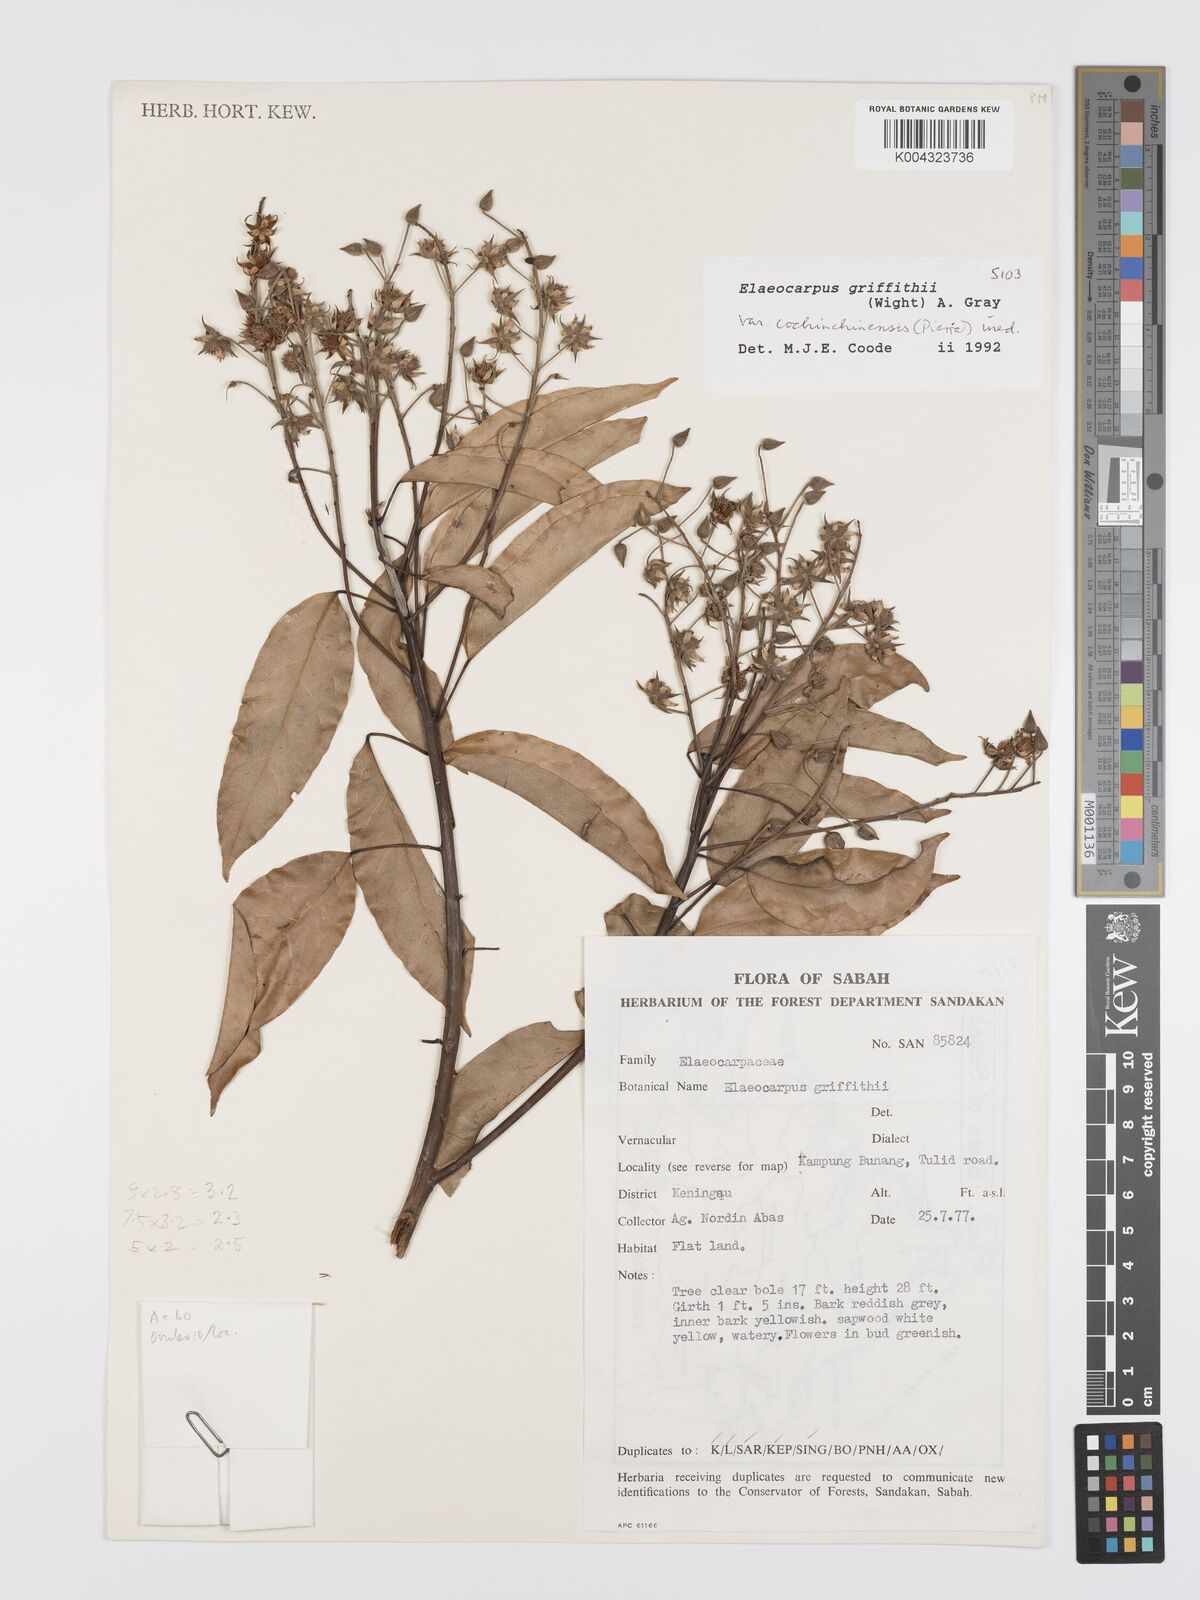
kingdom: Plantae
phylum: Tracheophyta
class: Magnoliopsida
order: Oxalidales
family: Elaeocarpaceae
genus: Elaeocarpus
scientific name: Elaeocarpus griffithii
